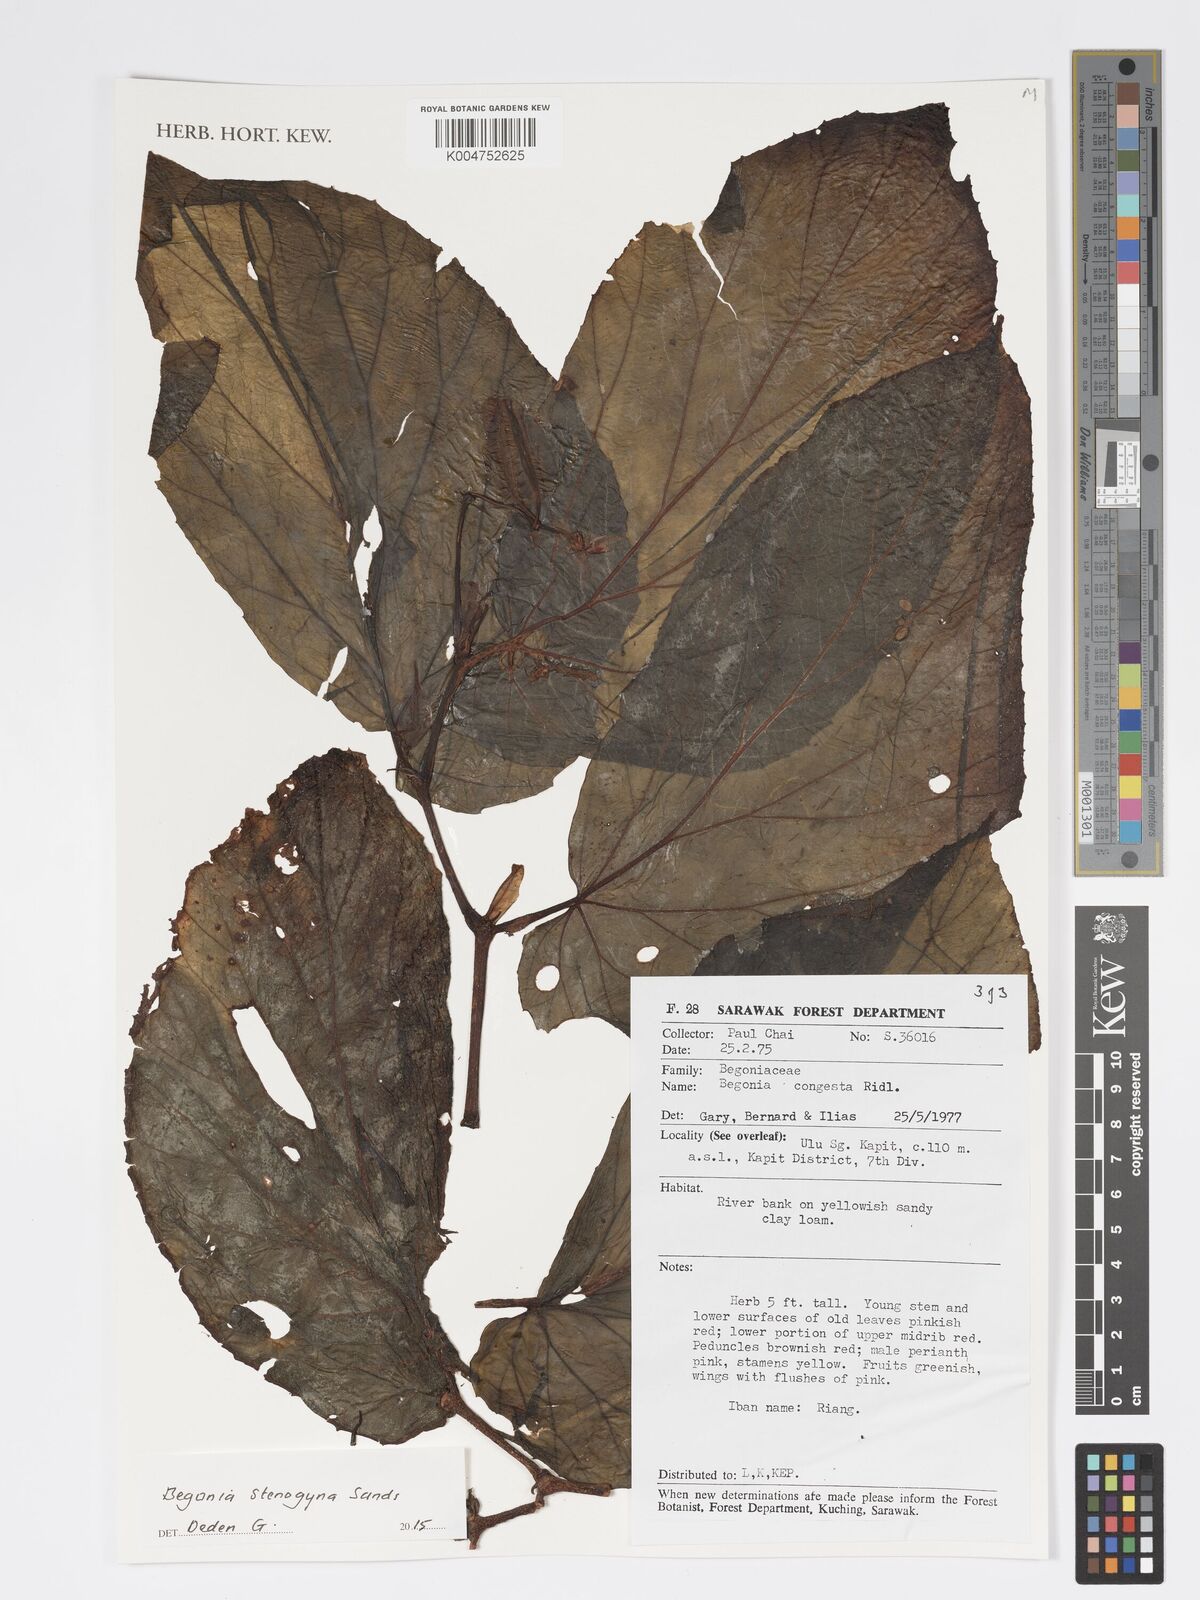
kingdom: Plantae
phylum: Tracheophyta
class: Magnoliopsida
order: Cucurbitales
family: Begoniaceae
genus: Begonia
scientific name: Begonia stenogyna
